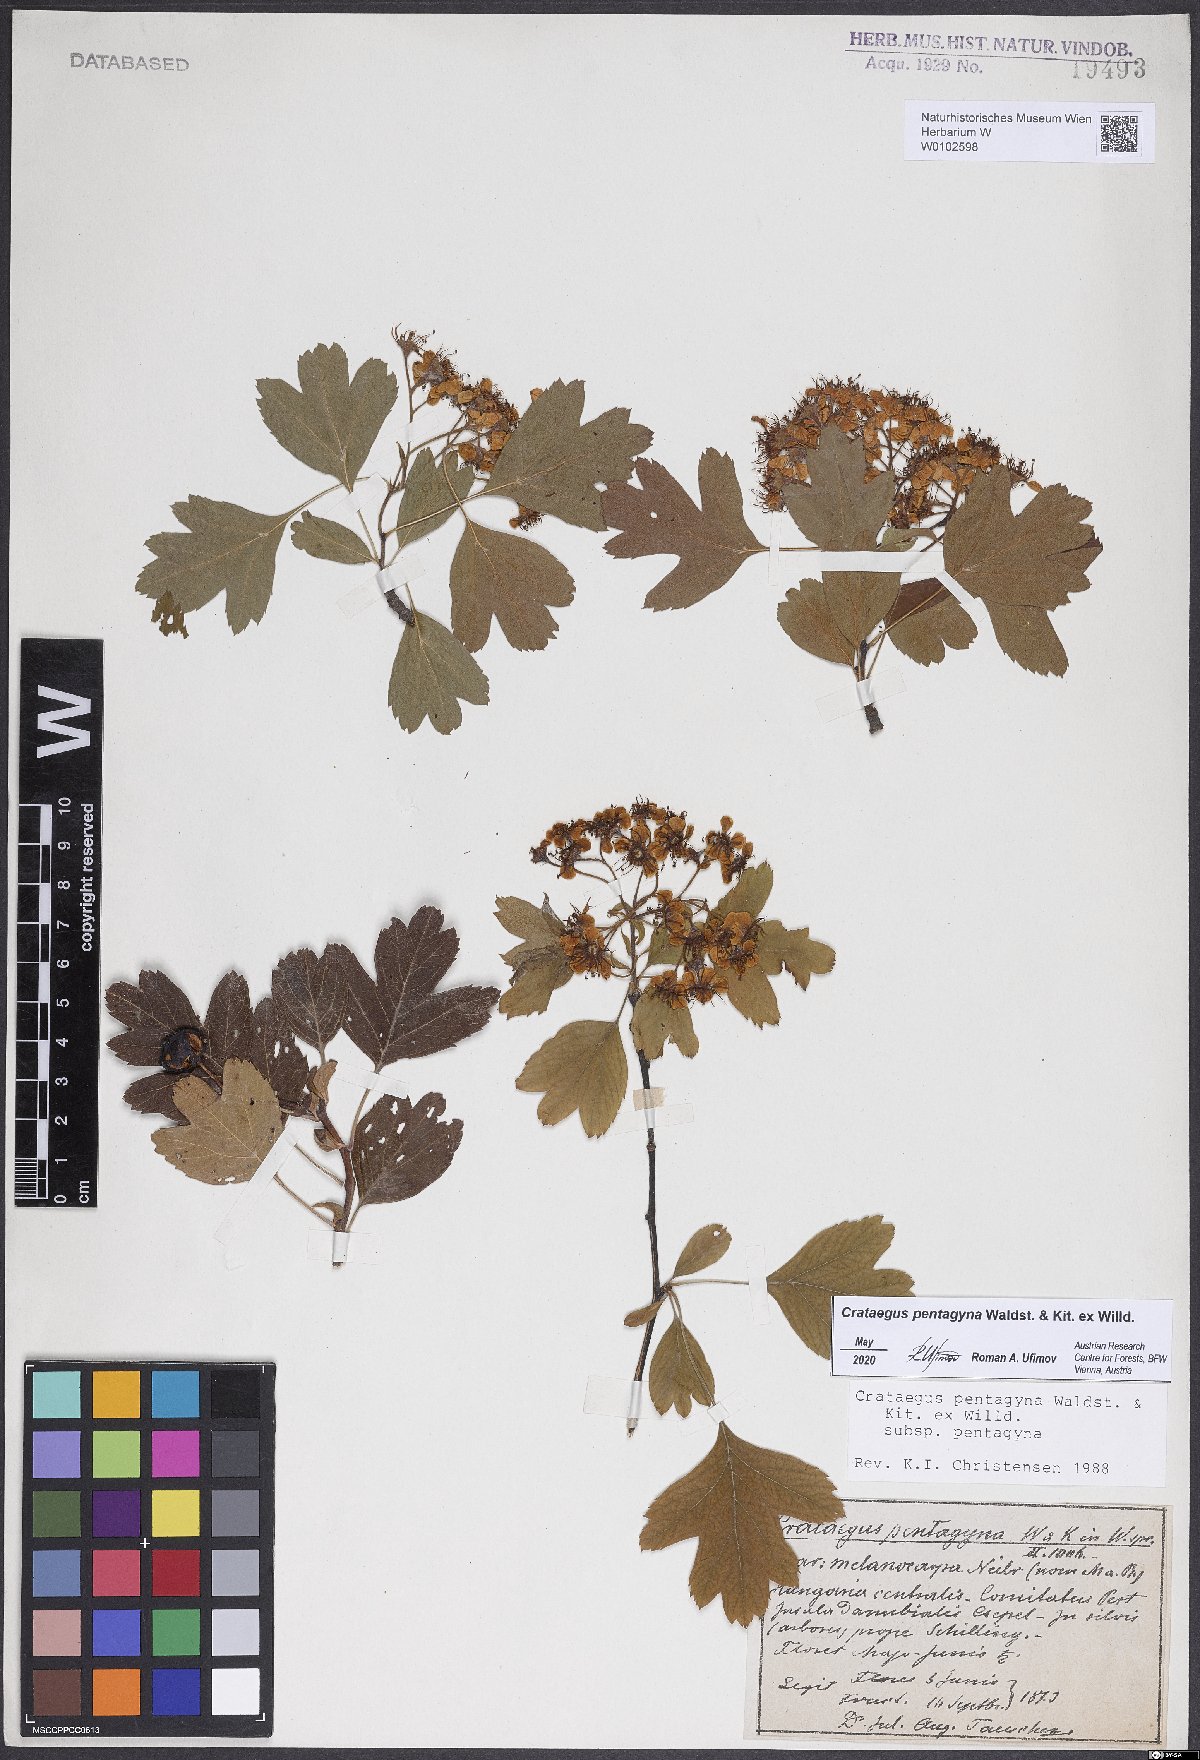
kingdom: Plantae
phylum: Tracheophyta
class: Magnoliopsida
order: Rosales
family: Rosaceae
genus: Crataegus
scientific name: Crataegus pentagyna
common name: Small-flowered black hawthorn
